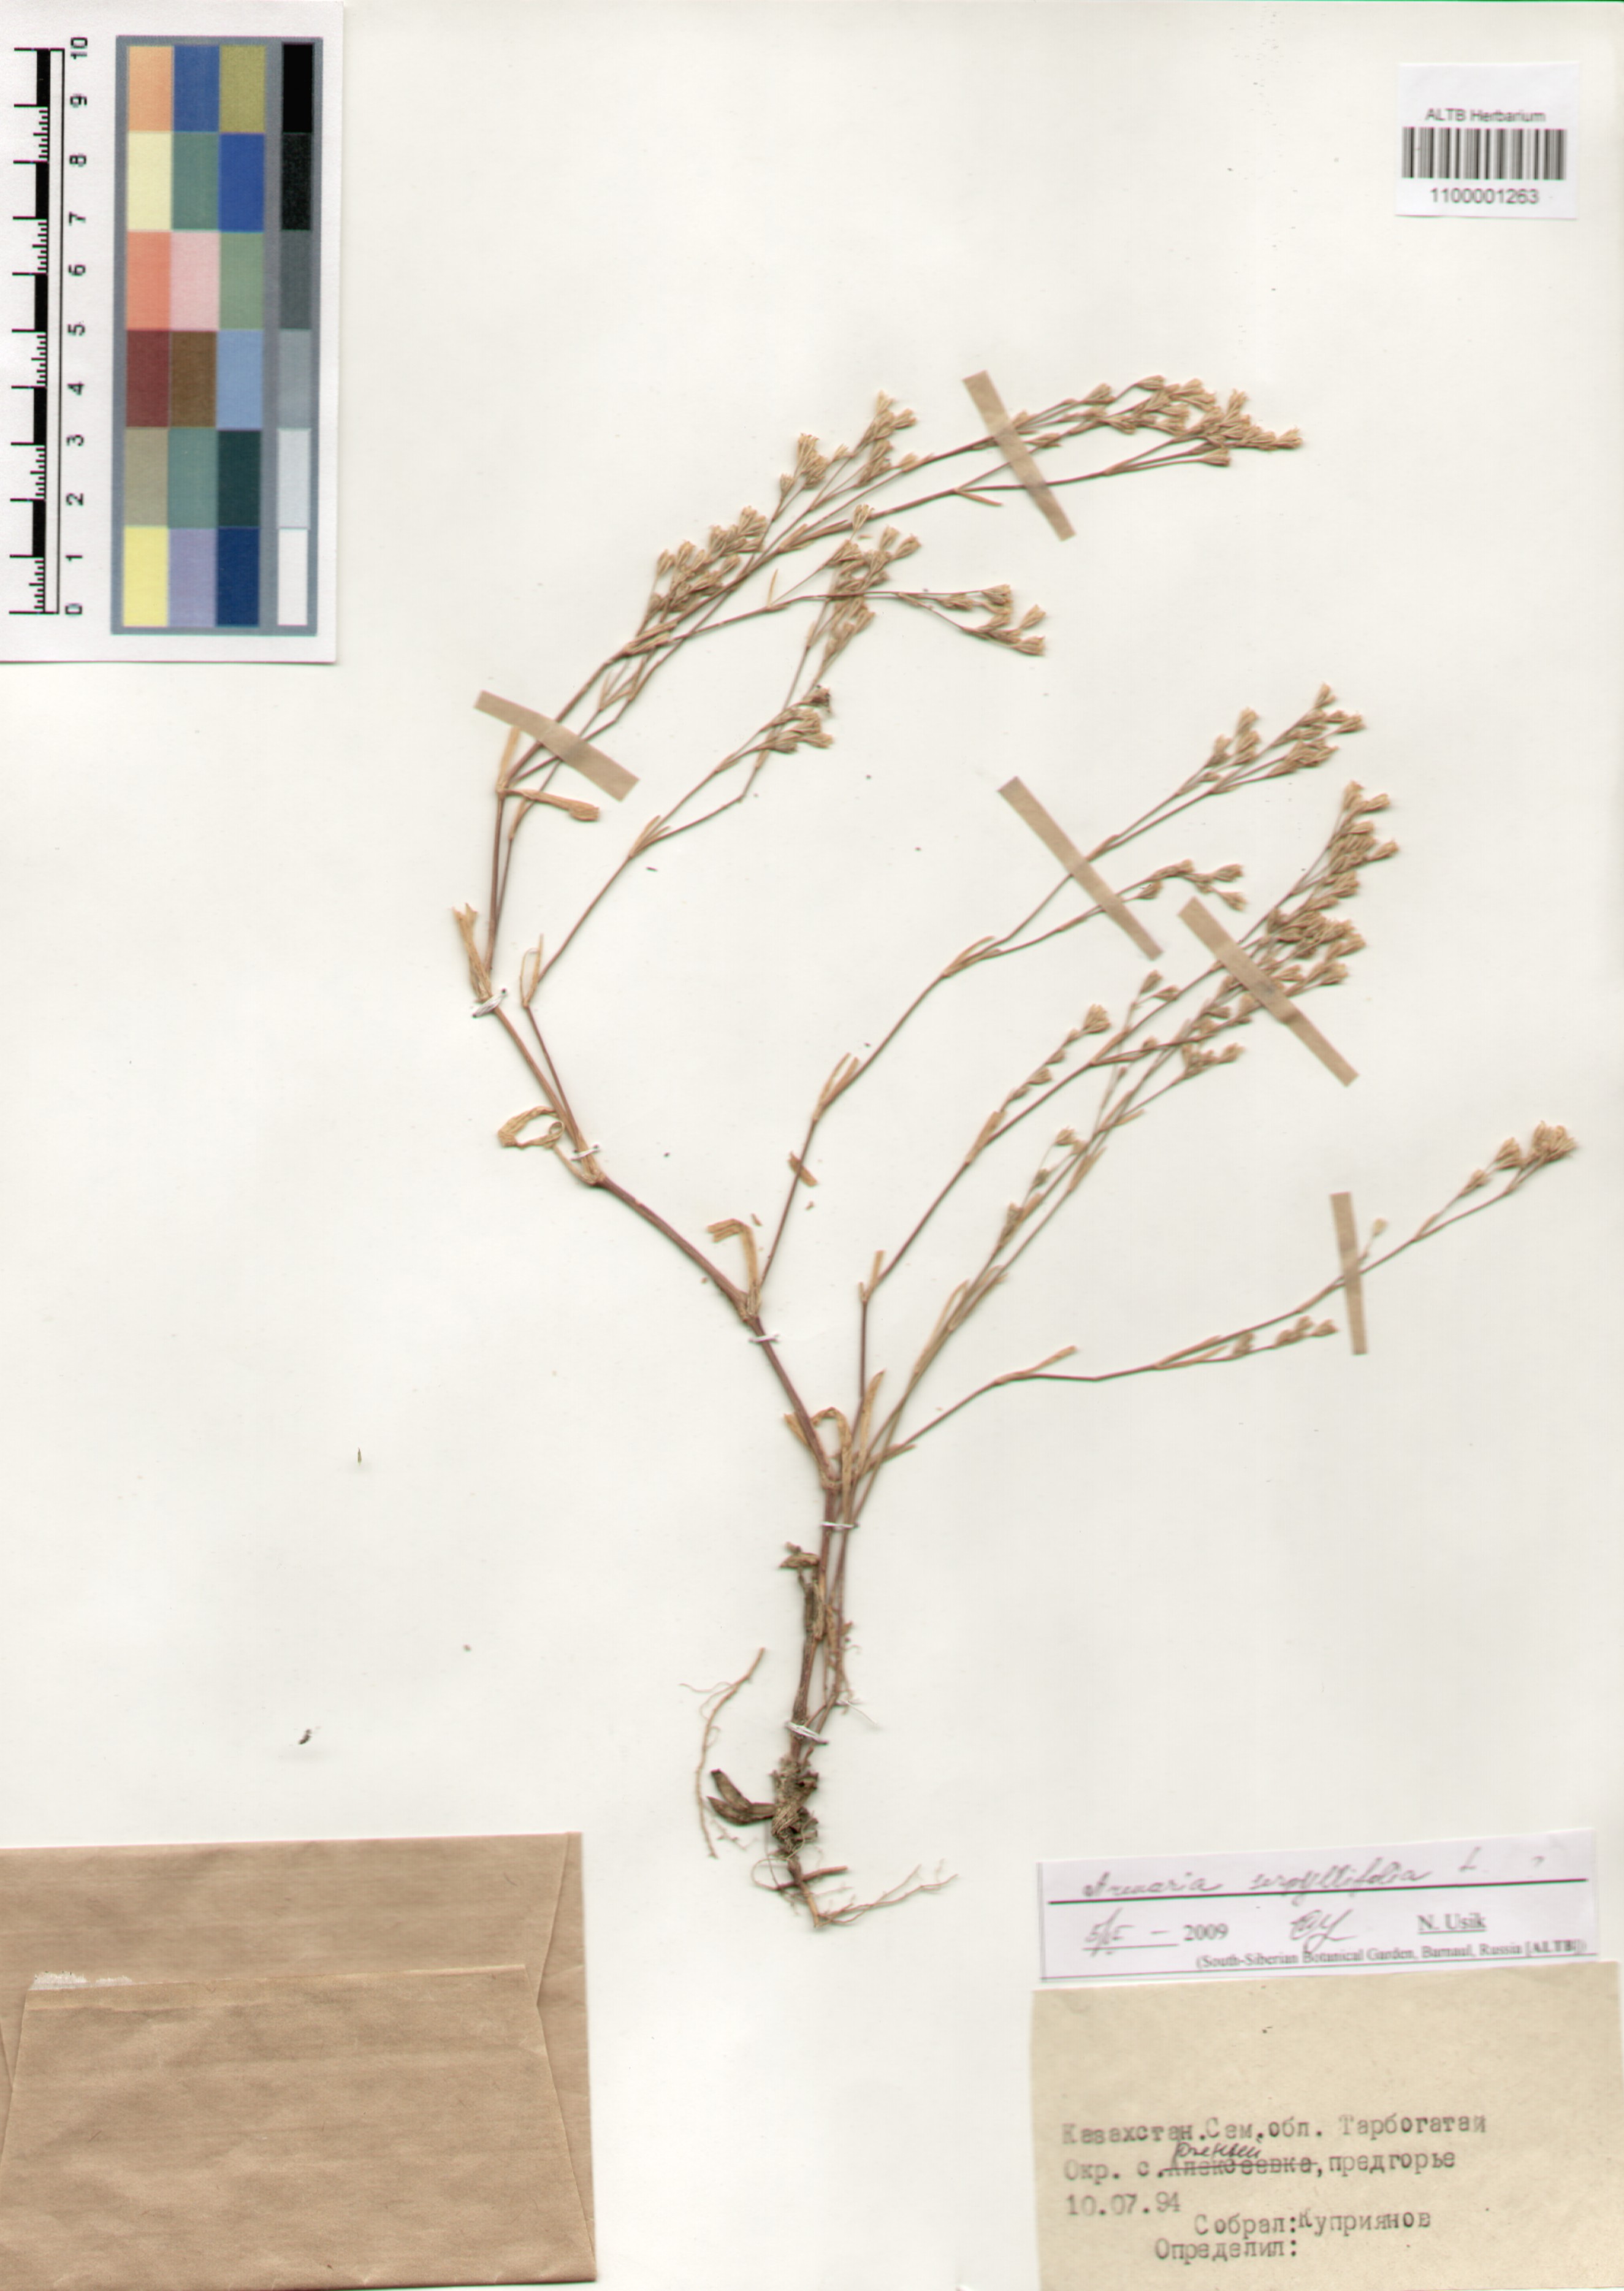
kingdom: Plantae
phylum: Tracheophyta
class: Magnoliopsida
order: Caryophyllales
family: Caryophyllaceae
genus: Arenaria
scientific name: Arenaria serpyllifolia
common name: Thyme-leaved sandwort
